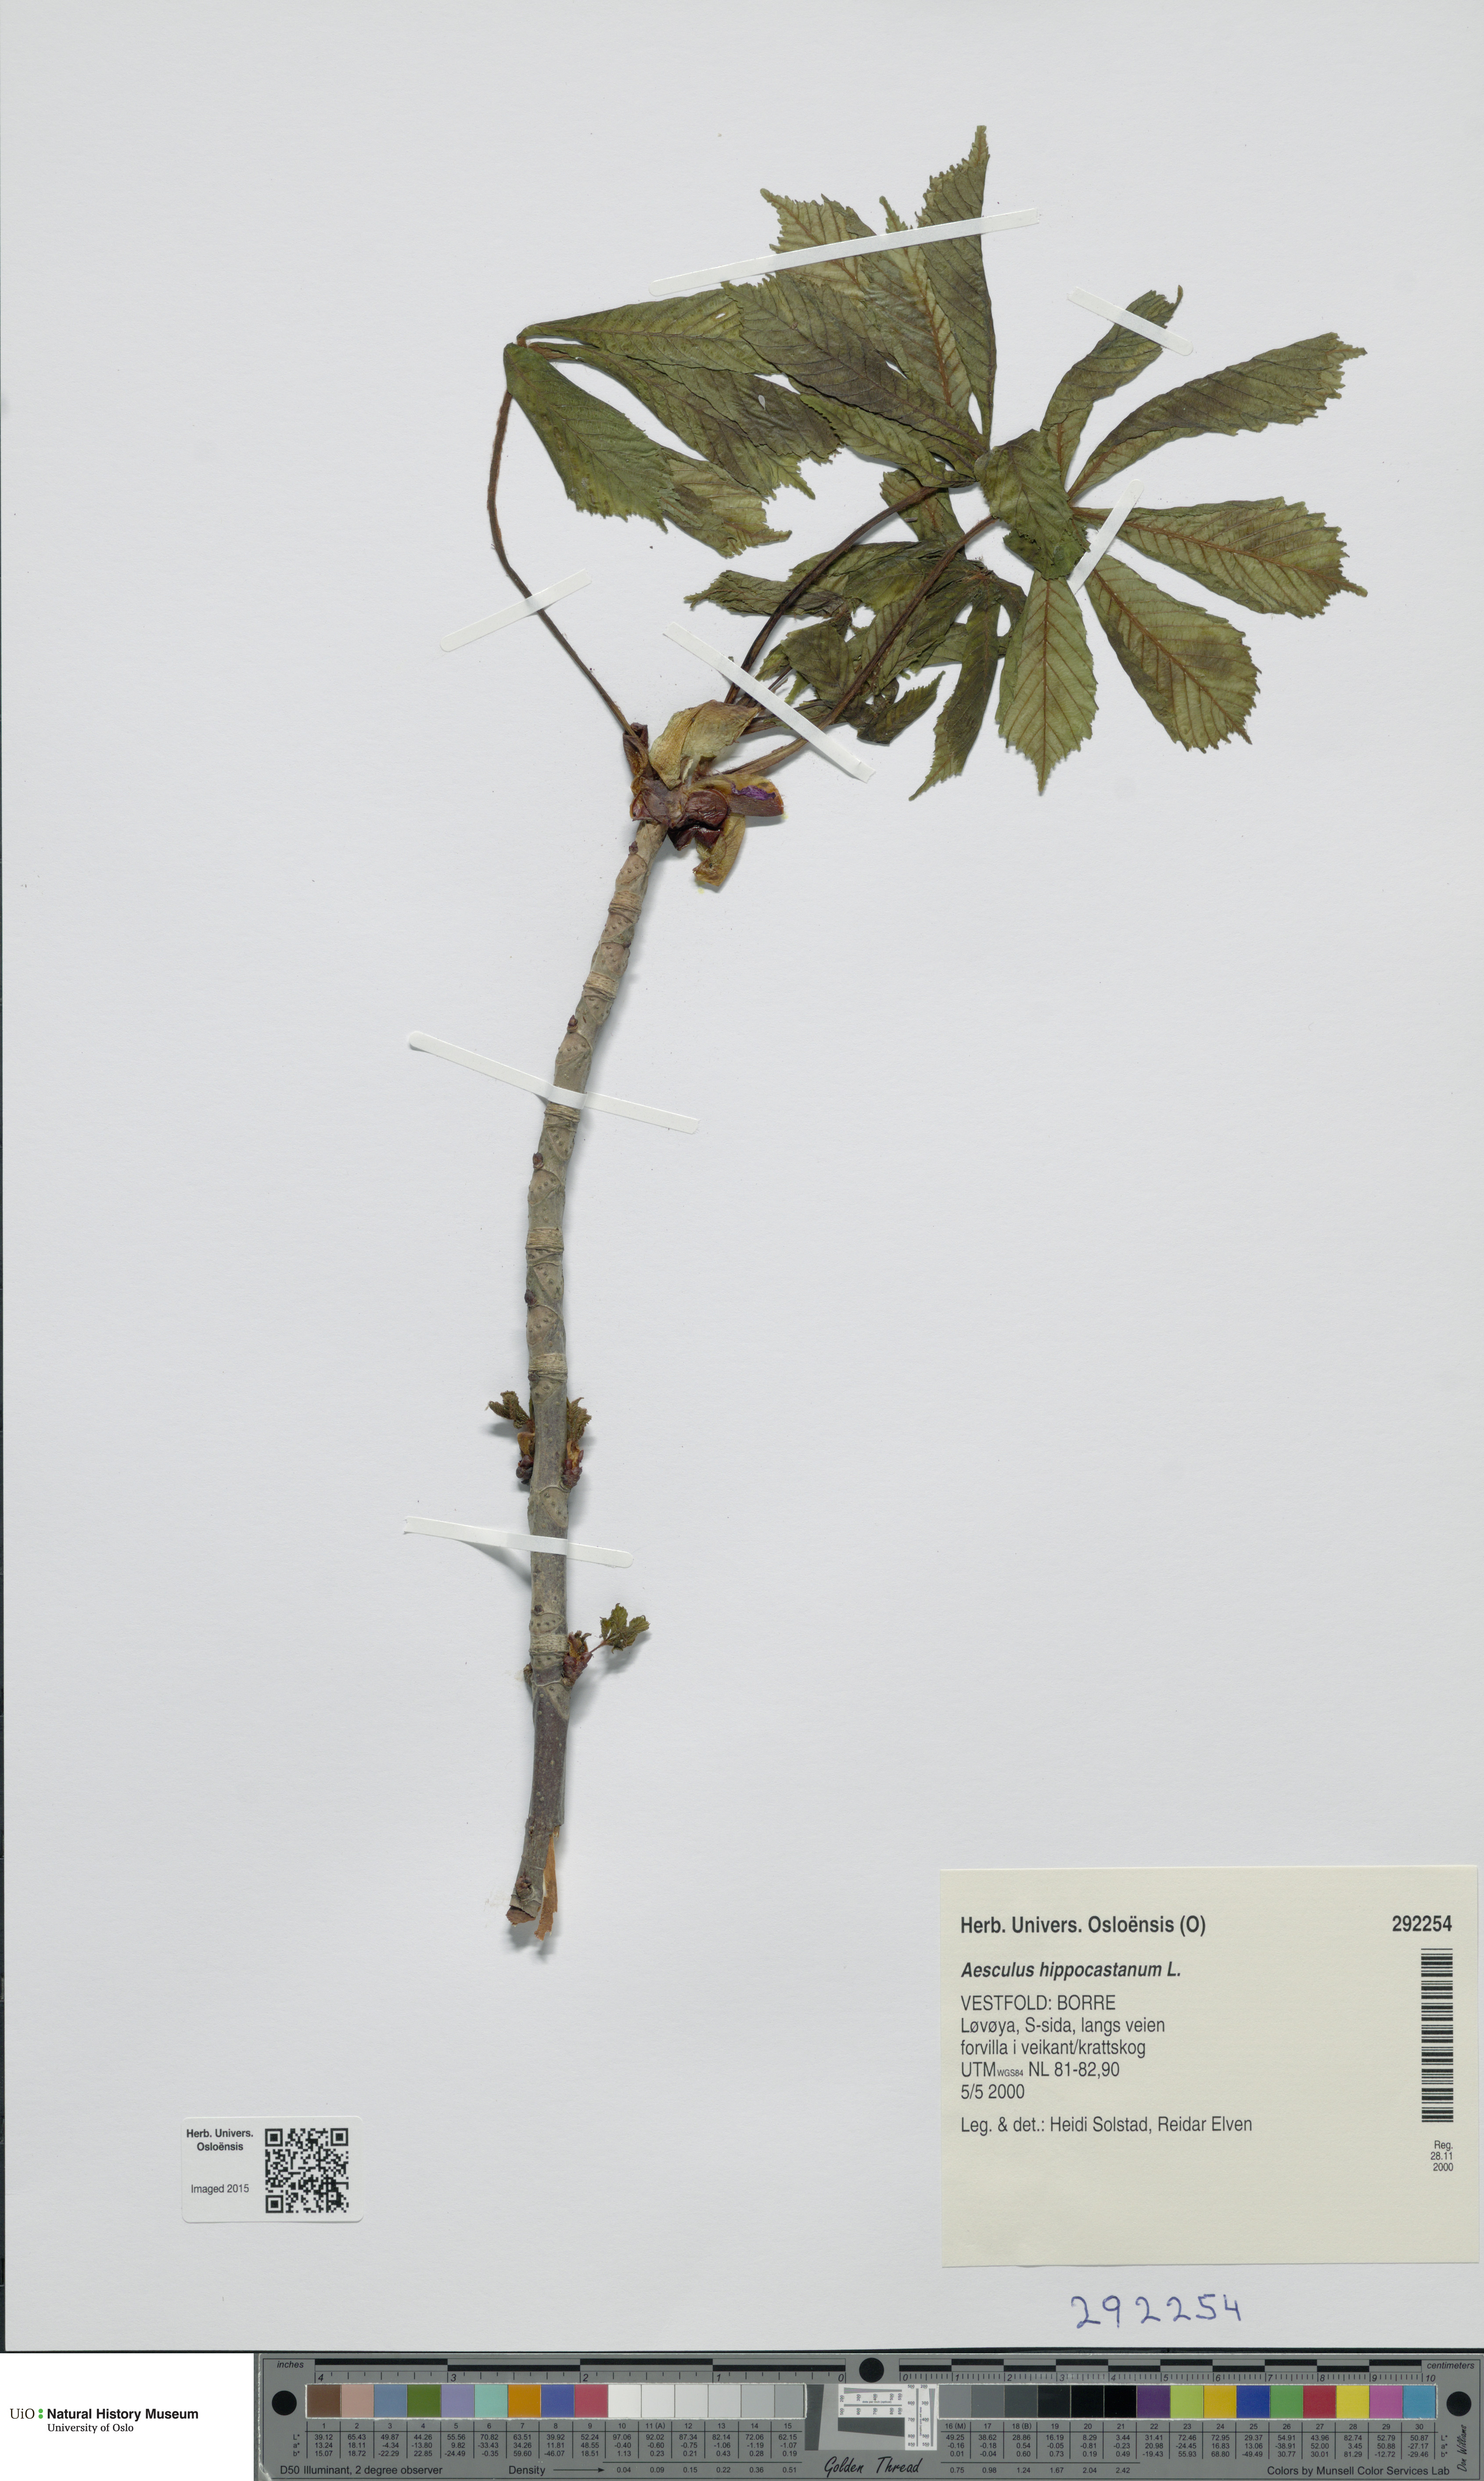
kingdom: Plantae
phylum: Tracheophyta
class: Magnoliopsida
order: Sapindales
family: Sapindaceae
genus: Aesculus
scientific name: Aesculus hippocastanum
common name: Horse-chestnut
